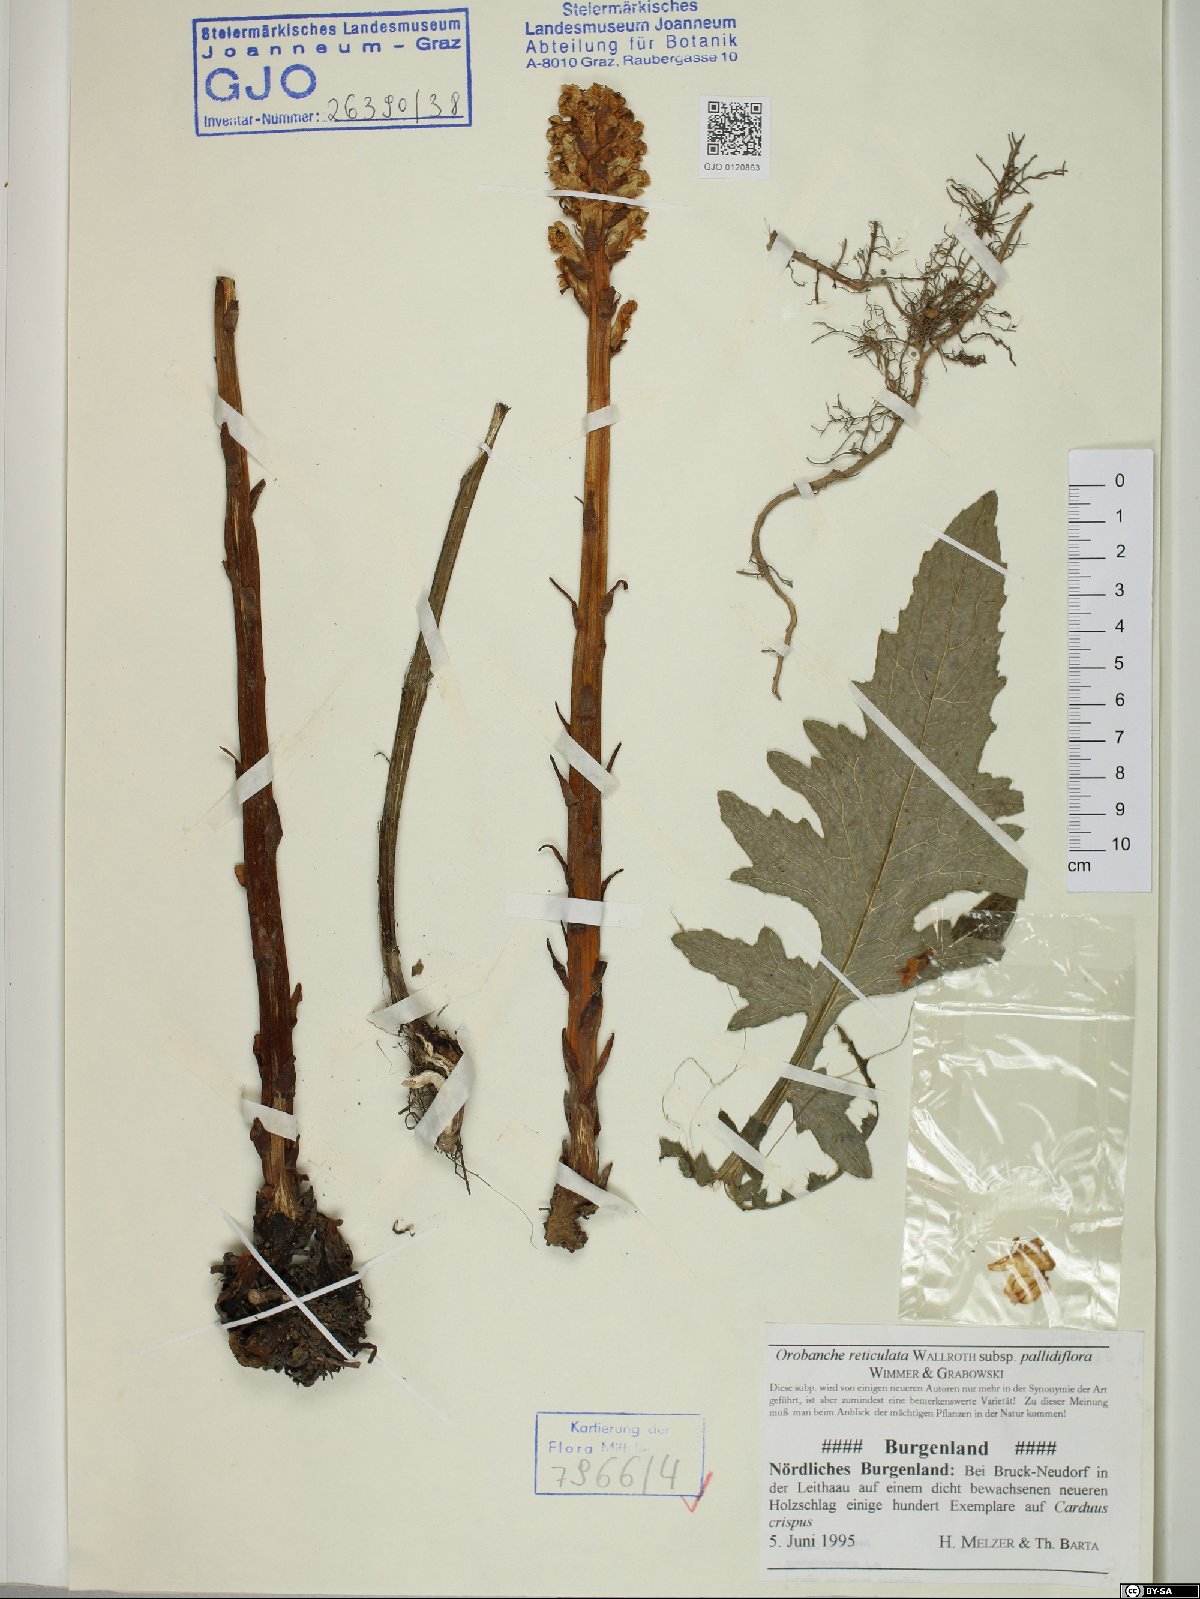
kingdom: Plantae
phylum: Tracheophyta
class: Magnoliopsida
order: Lamiales
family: Orobanchaceae
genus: Orobanche
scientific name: Orobanche reticulata
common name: Thistle broomrape
